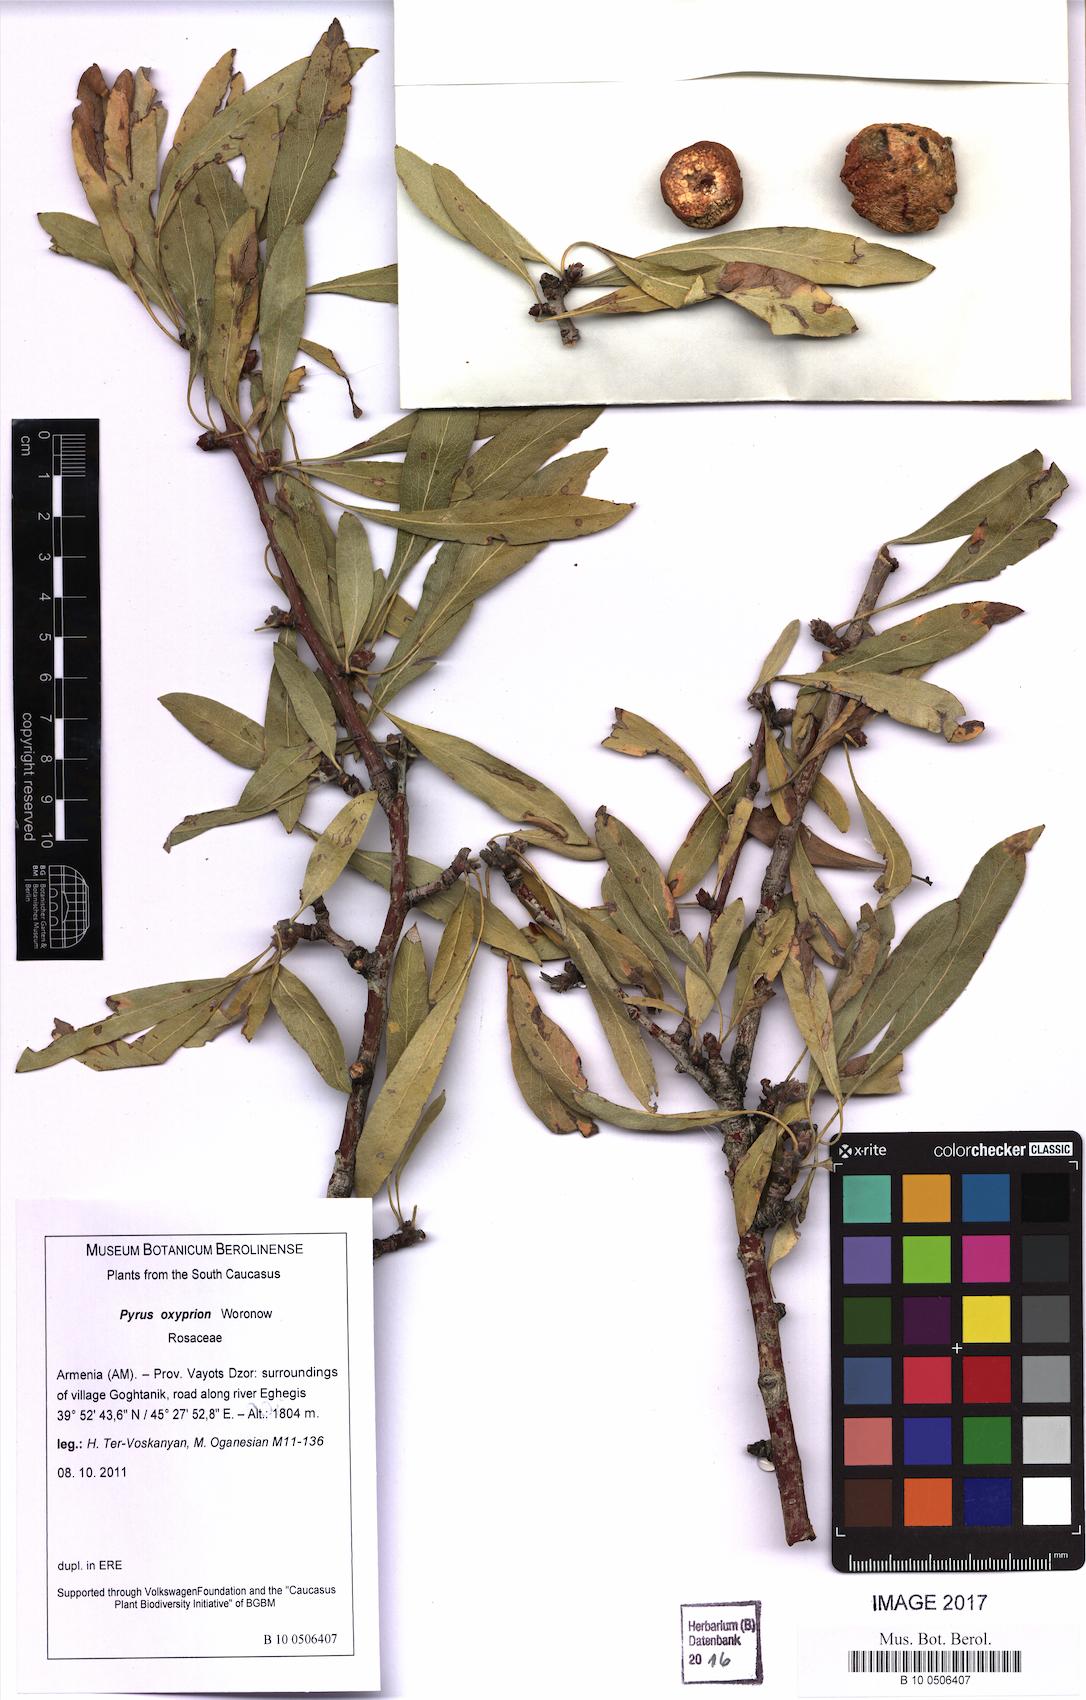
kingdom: Plantae
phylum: Tracheophyta
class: Magnoliopsida
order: Rosales
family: Rosaceae
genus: Pyrus
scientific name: Pyrus oxyprion
